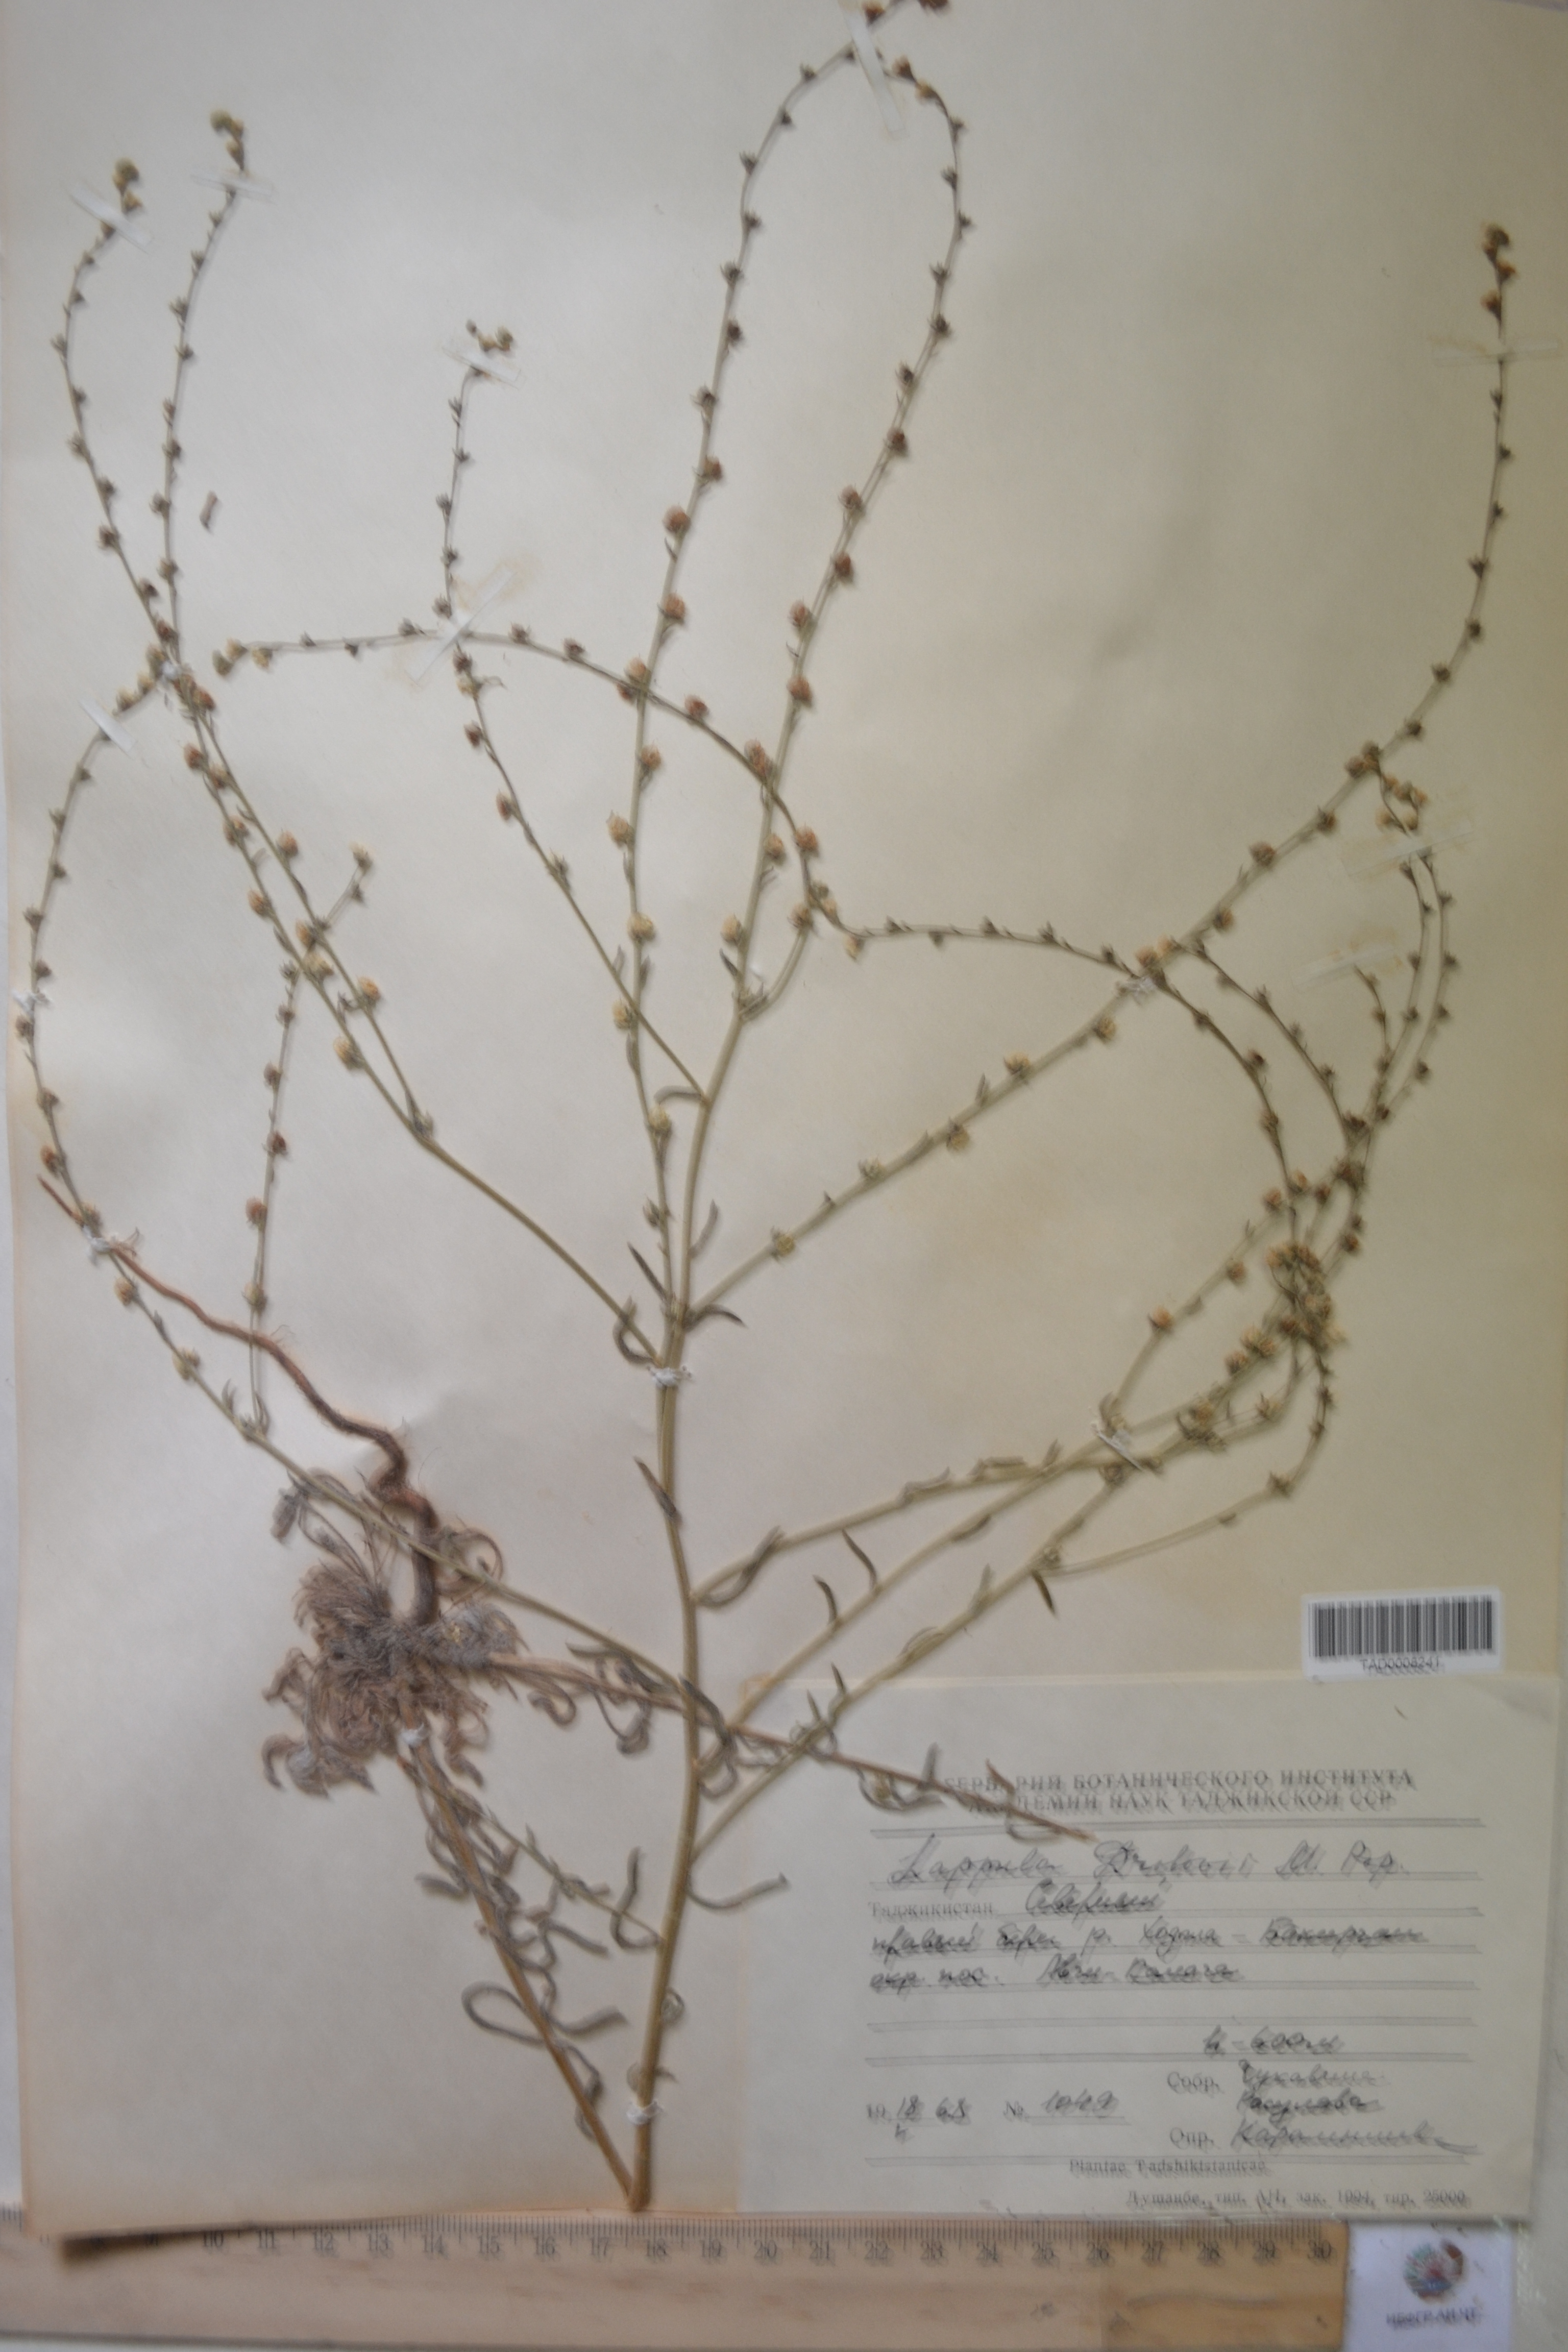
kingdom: Plantae
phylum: Tracheophyta
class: Magnoliopsida
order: Boraginales
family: Boraginaceae
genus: Rochelia
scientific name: Rochelia drobovii
